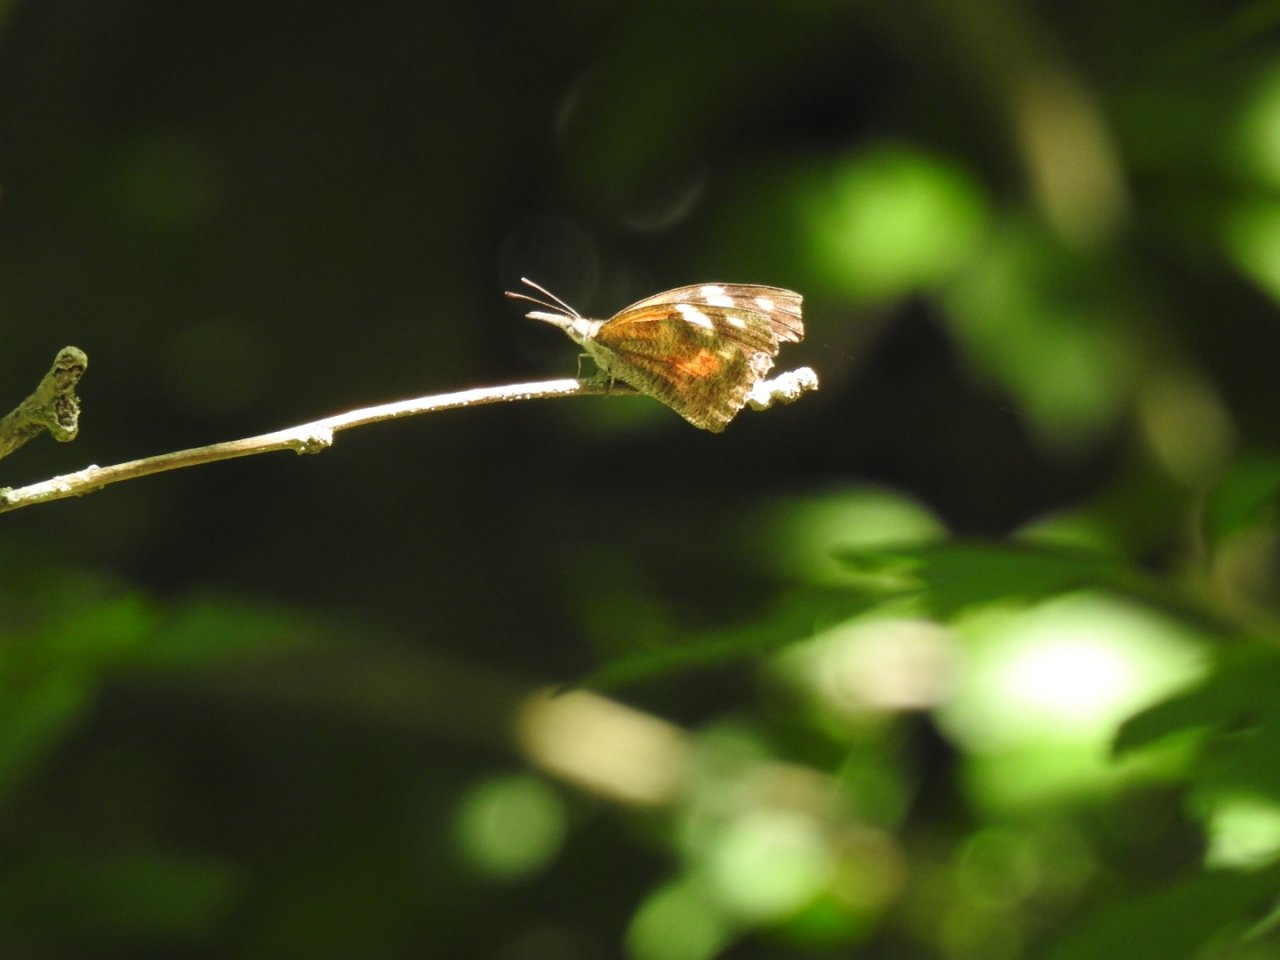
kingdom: Animalia
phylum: Arthropoda
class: Insecta
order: Lepidoptera
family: Nymphalidae
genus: Libytheana
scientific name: Libytheana carinenta
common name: American Snout
